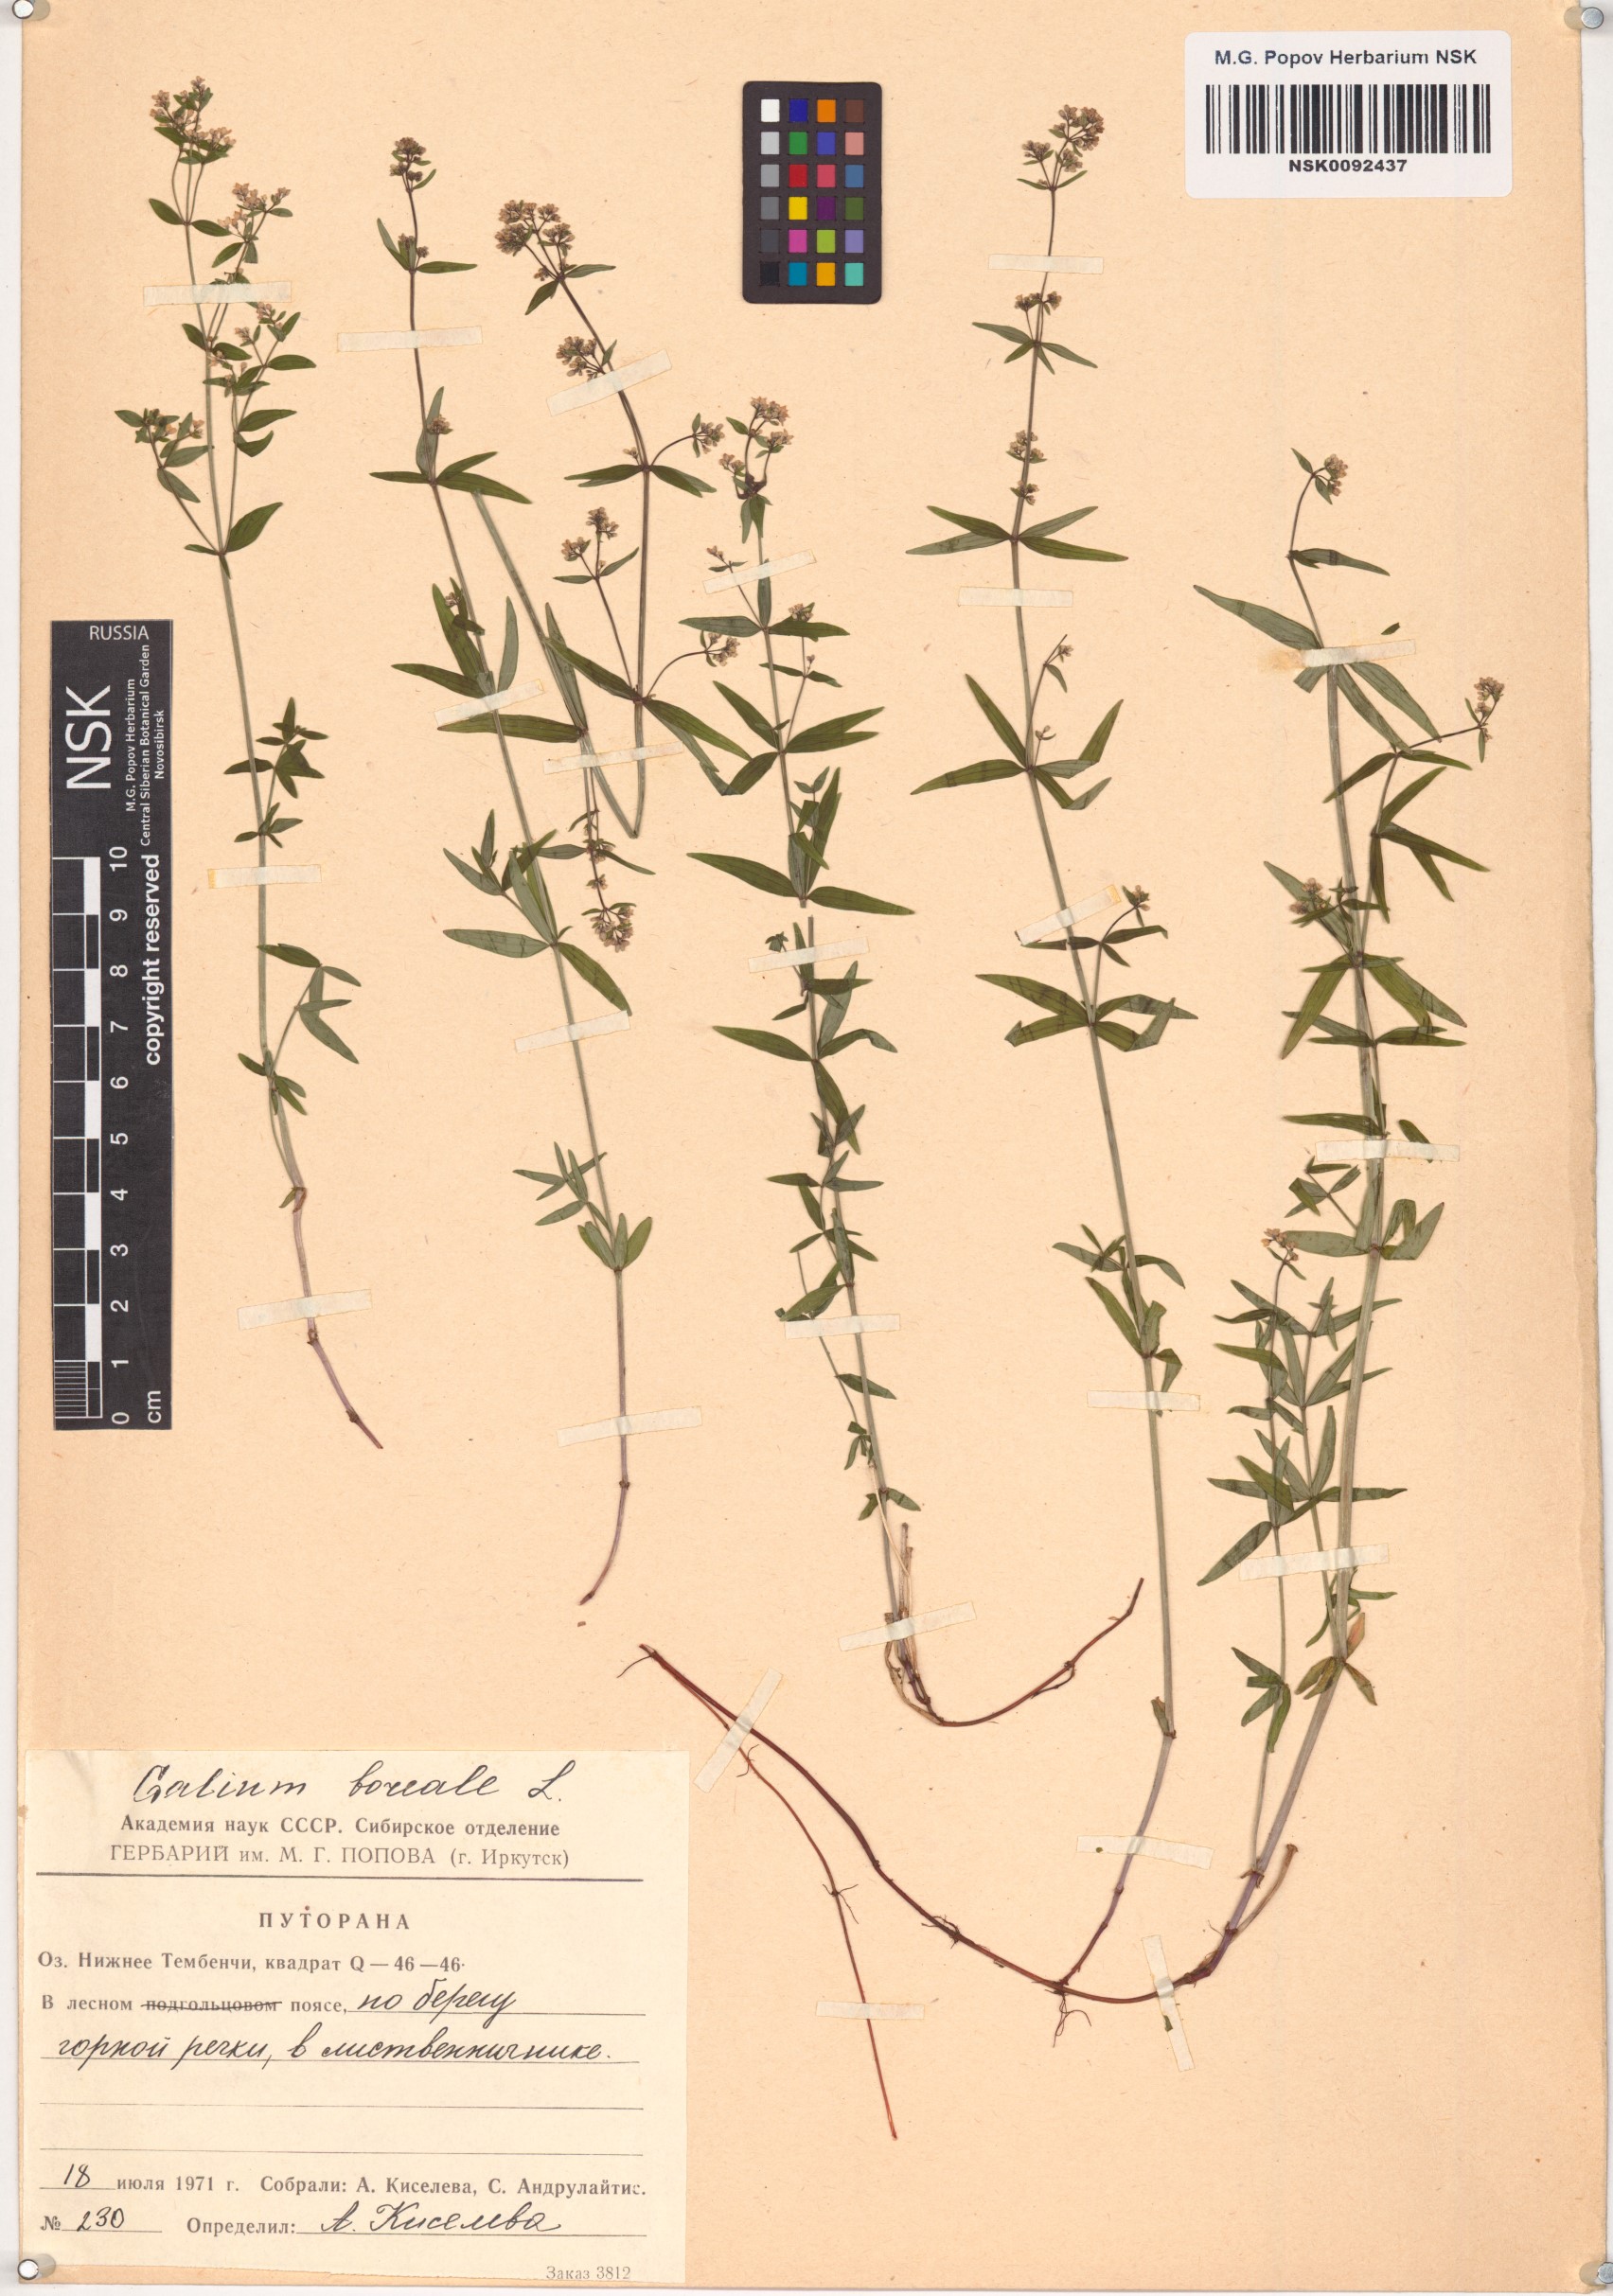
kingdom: Plantae
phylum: Tracheophyta
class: Magnoliopsida
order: Gentianales
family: Rubiaceae
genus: Galium
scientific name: Galium boreale
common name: Northern bedstraw
